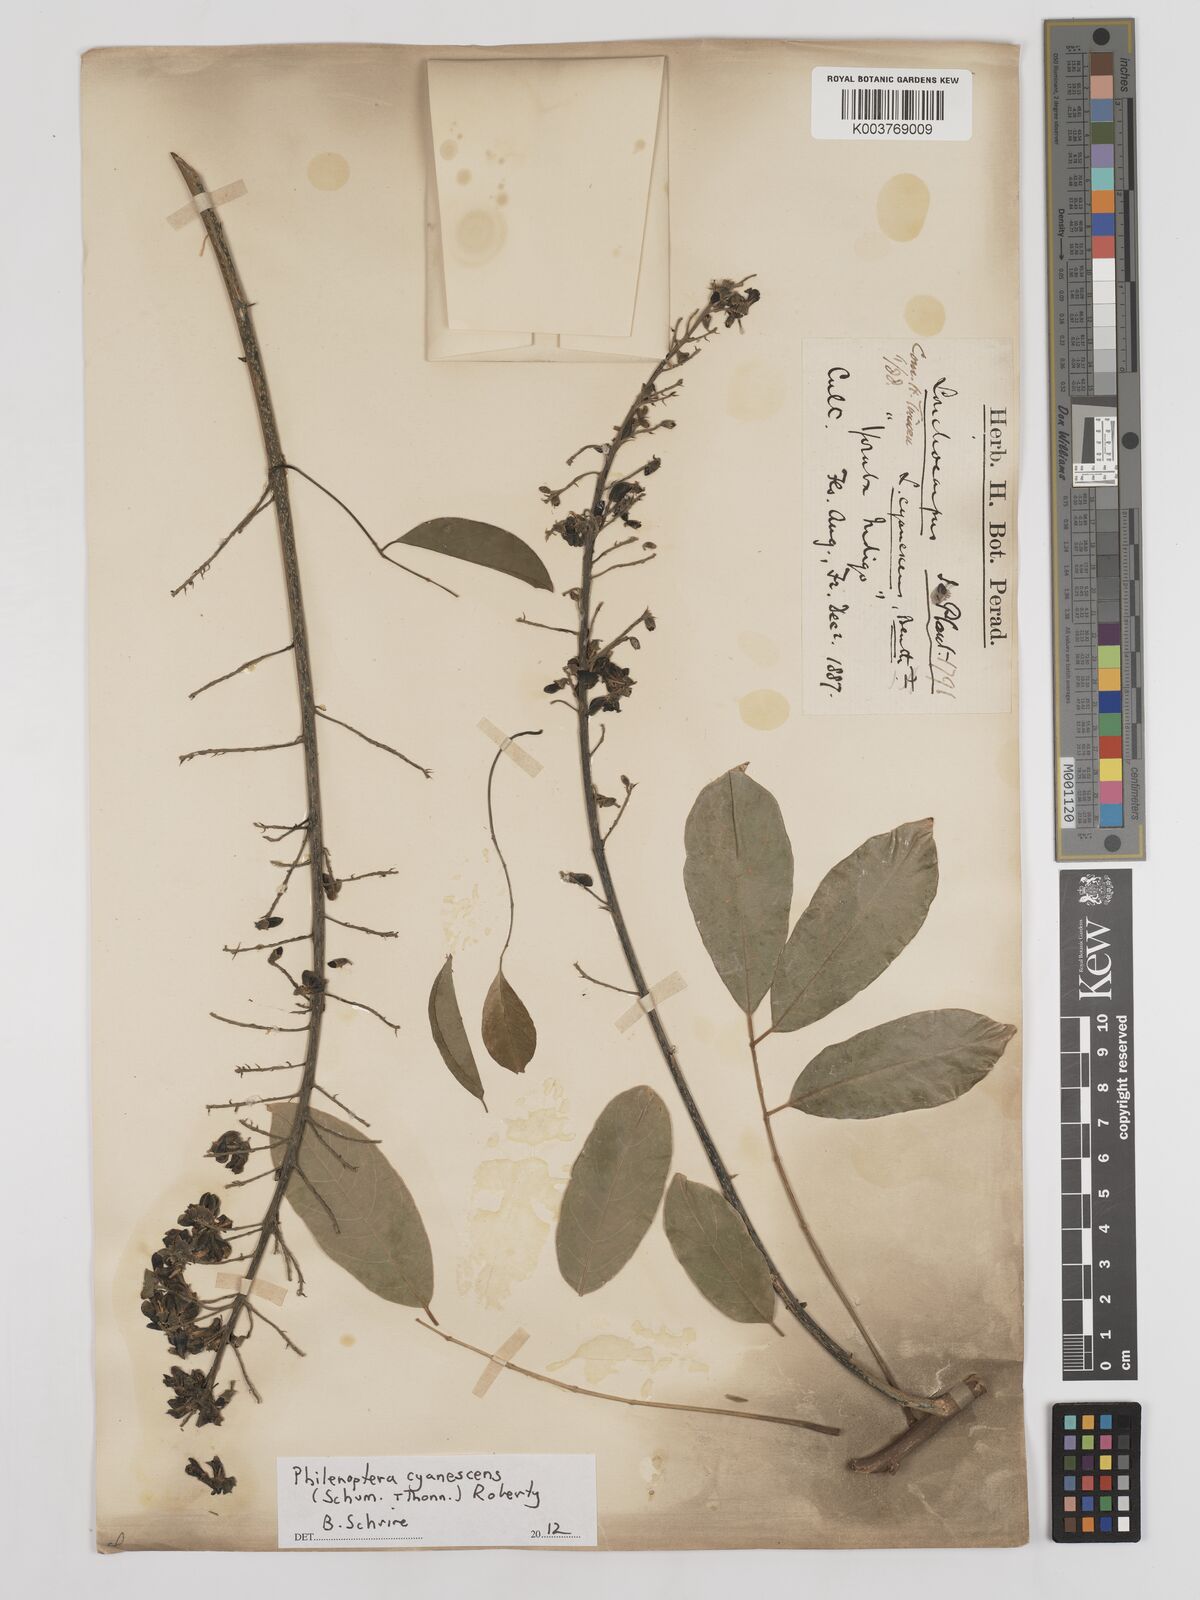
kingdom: Plantae
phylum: Tracheophyta
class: Magnoliopsida
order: Fabales
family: Fabaceae
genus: Philenoptera
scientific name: Philenoptera cyanescens
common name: West african-indigo
